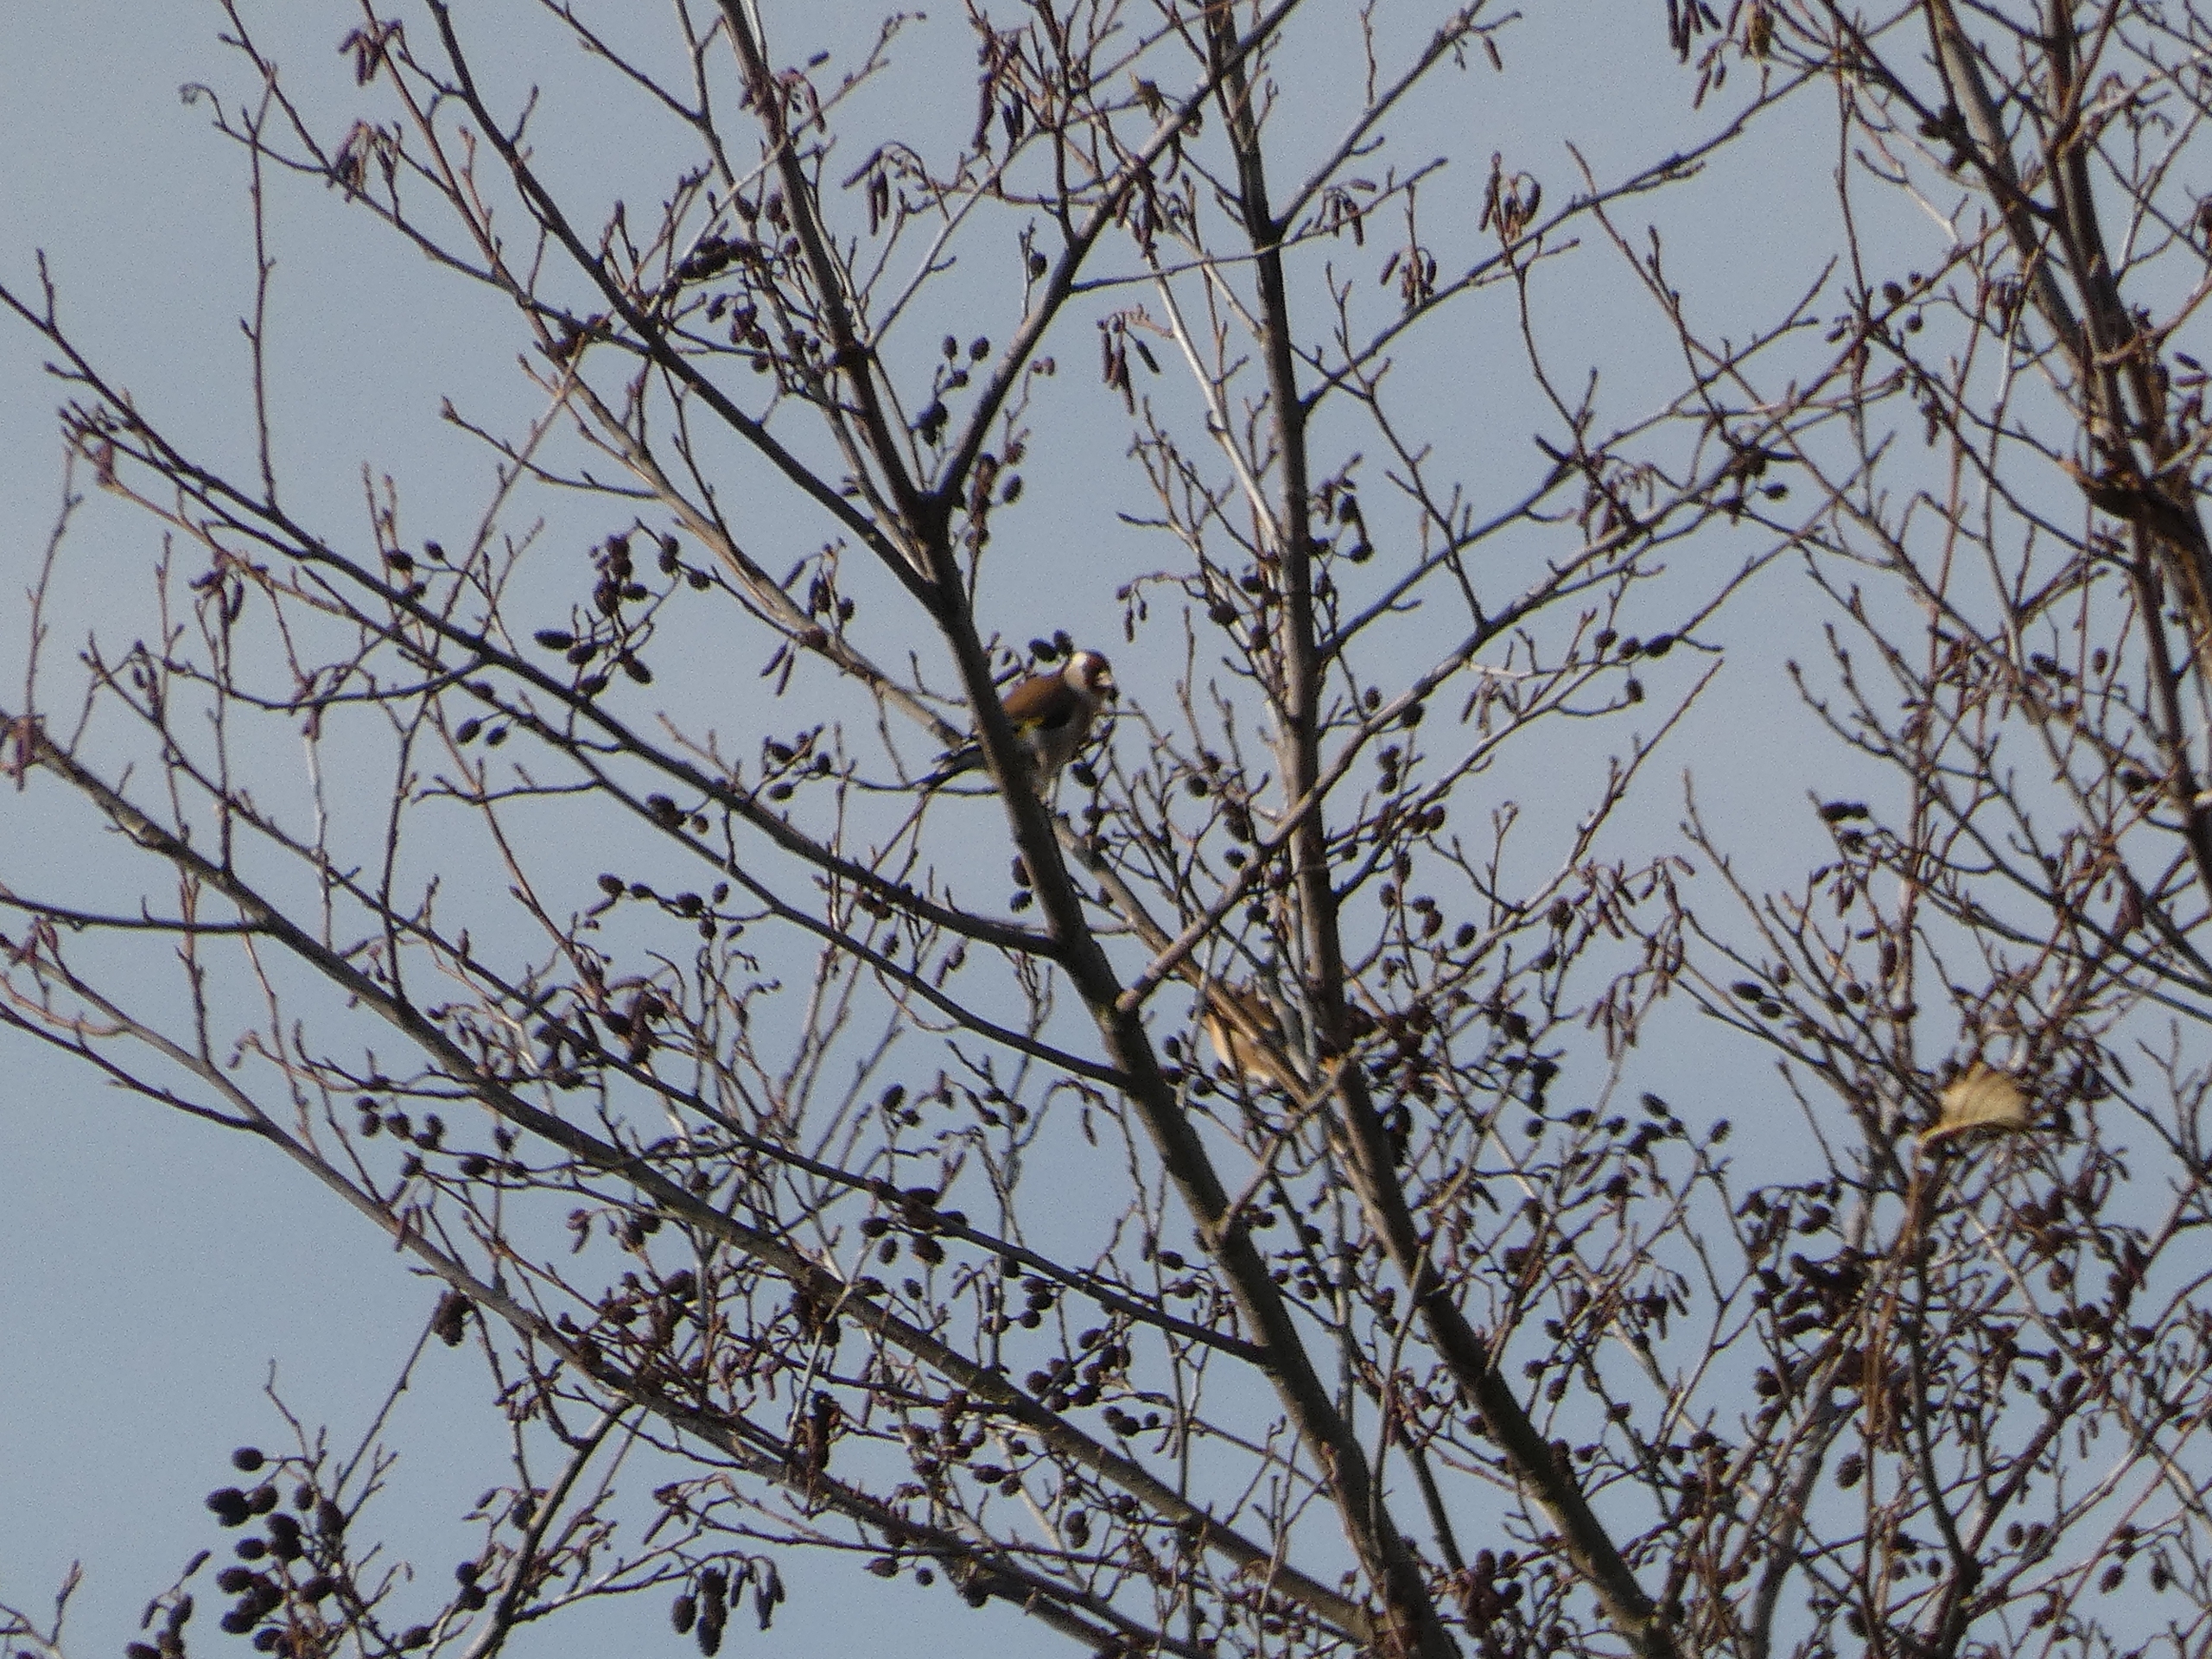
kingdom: Animalia
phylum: Chordata
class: Aves
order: Passeriformes
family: Fringillidae
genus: Carduelis
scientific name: Carduelis carduelis
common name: Stillits
